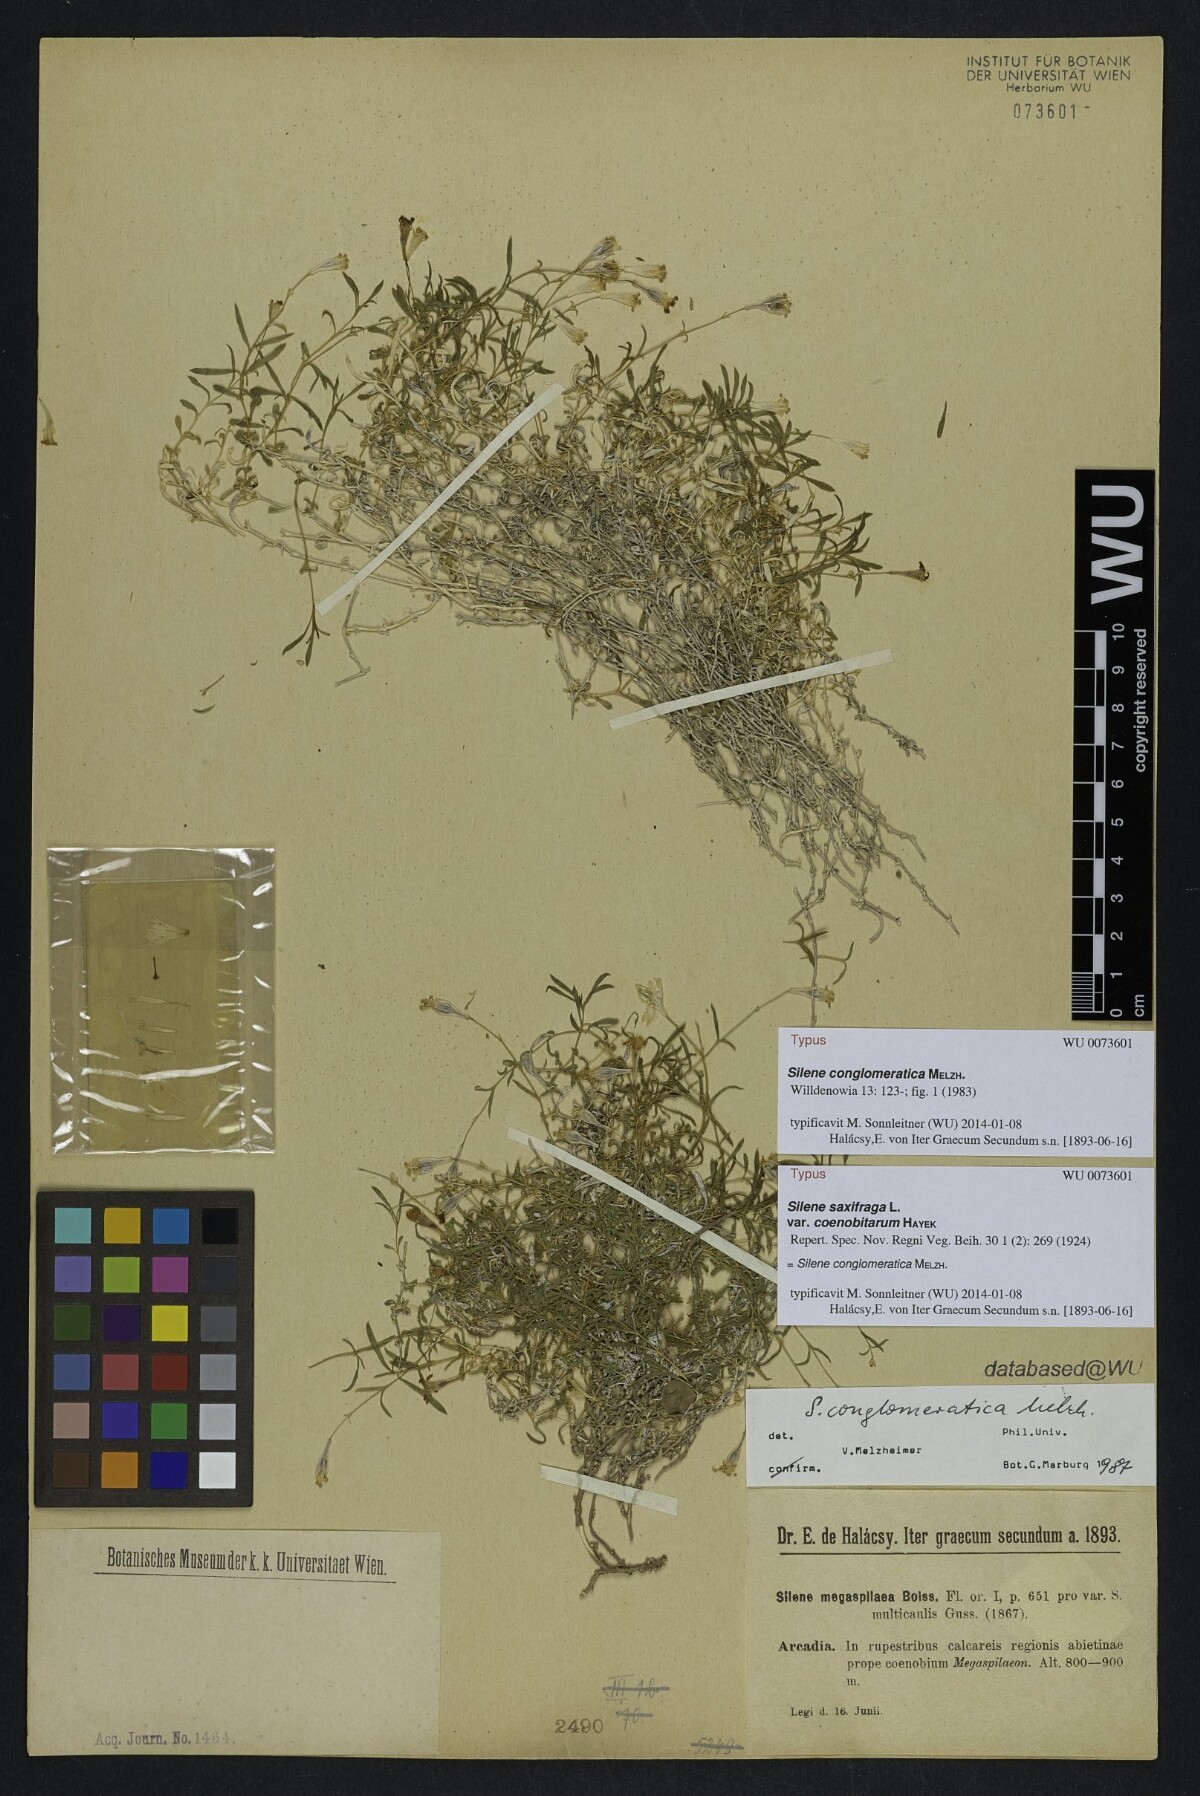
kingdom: Plantae
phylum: Tracheophyta
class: Magnoliopsida
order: Caryophyllales
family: Caryophyllaceae
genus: Silene
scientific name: Silene conglomeratica
